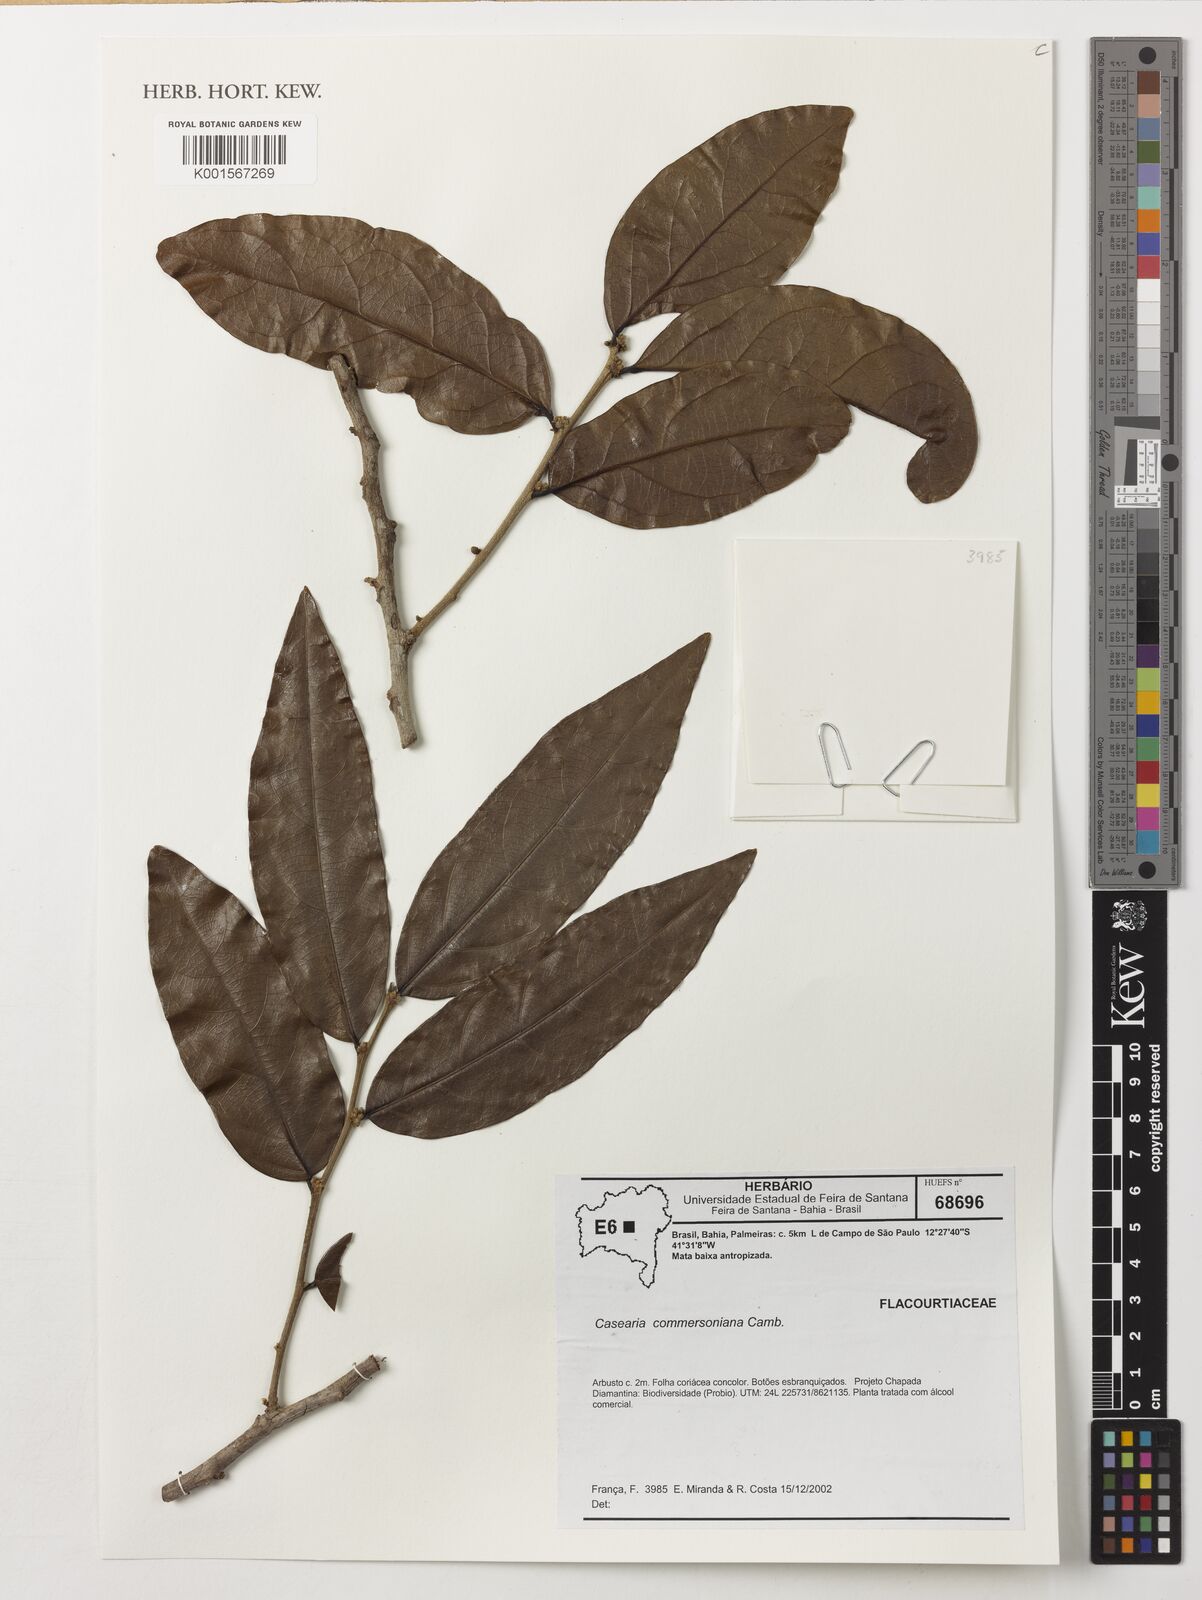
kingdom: Plantae
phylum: Tracheophyta
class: Magnoliopsida
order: Malpighiales
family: Salicaceae
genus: Piparea
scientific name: Piparea dentata
